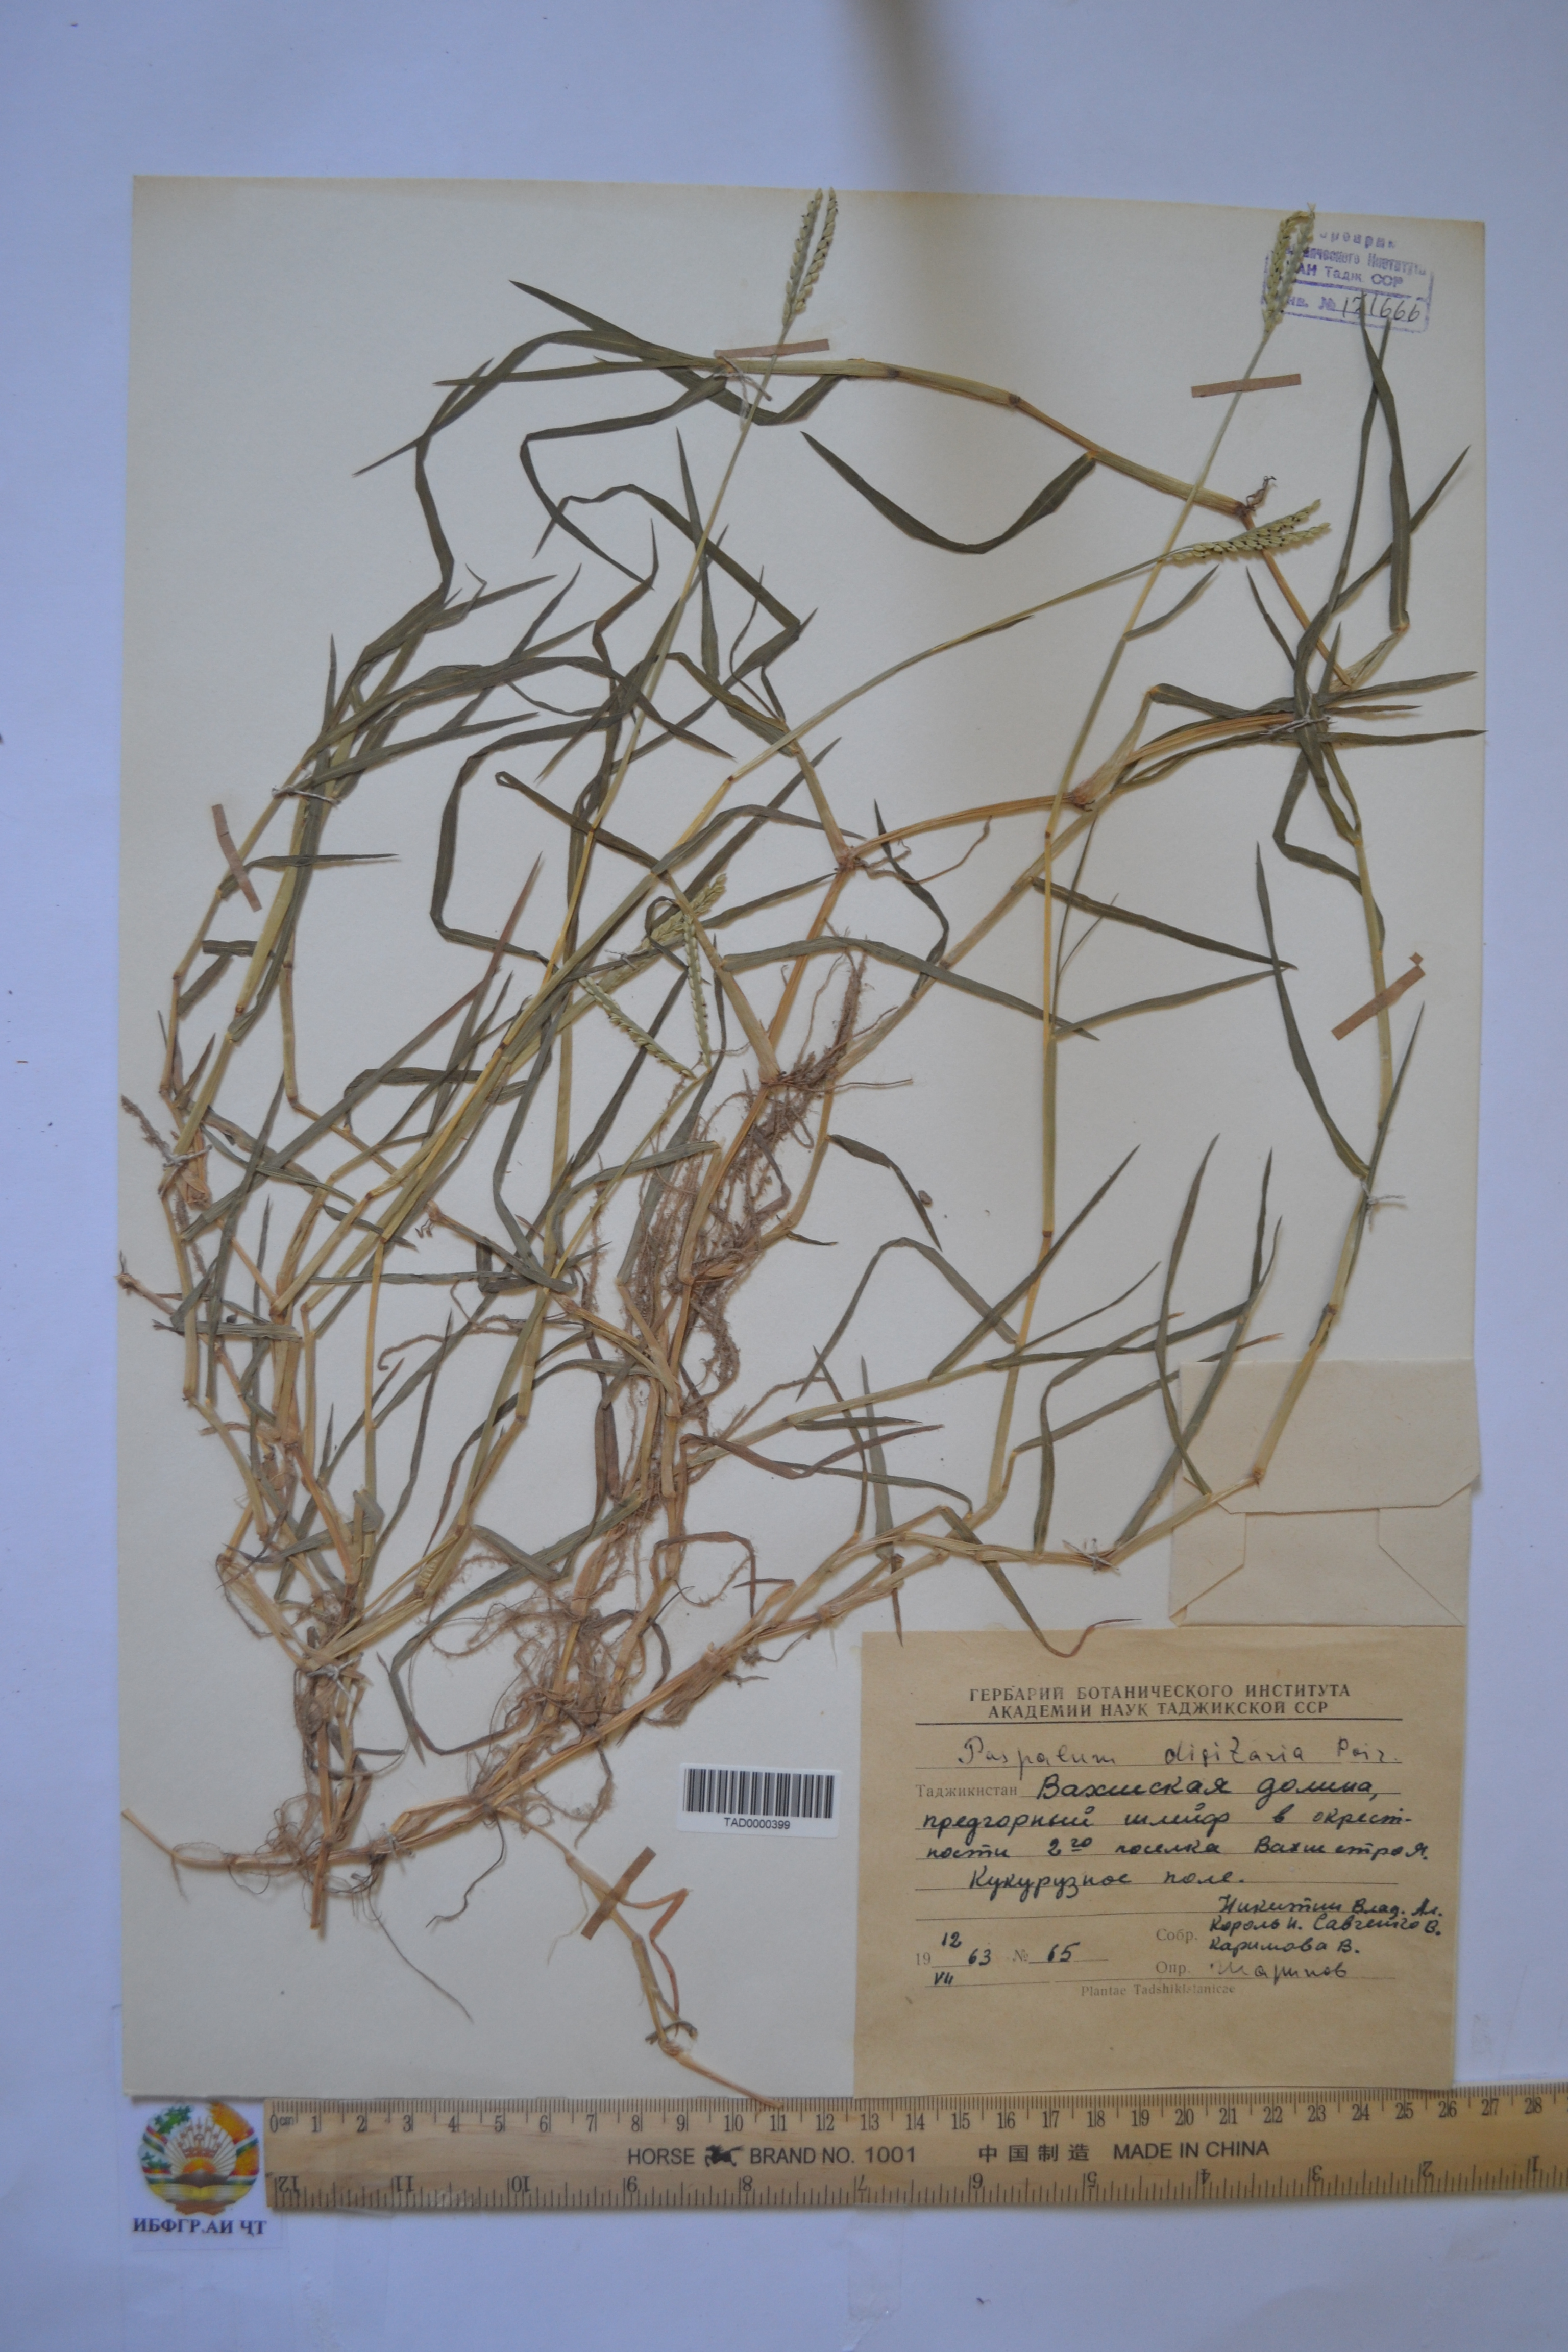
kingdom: Plantae
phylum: Tracheophyta
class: Liliopsida
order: Poales
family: Poaceae
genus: Paspalum
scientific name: Paspalum distichum
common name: Knotgrass
